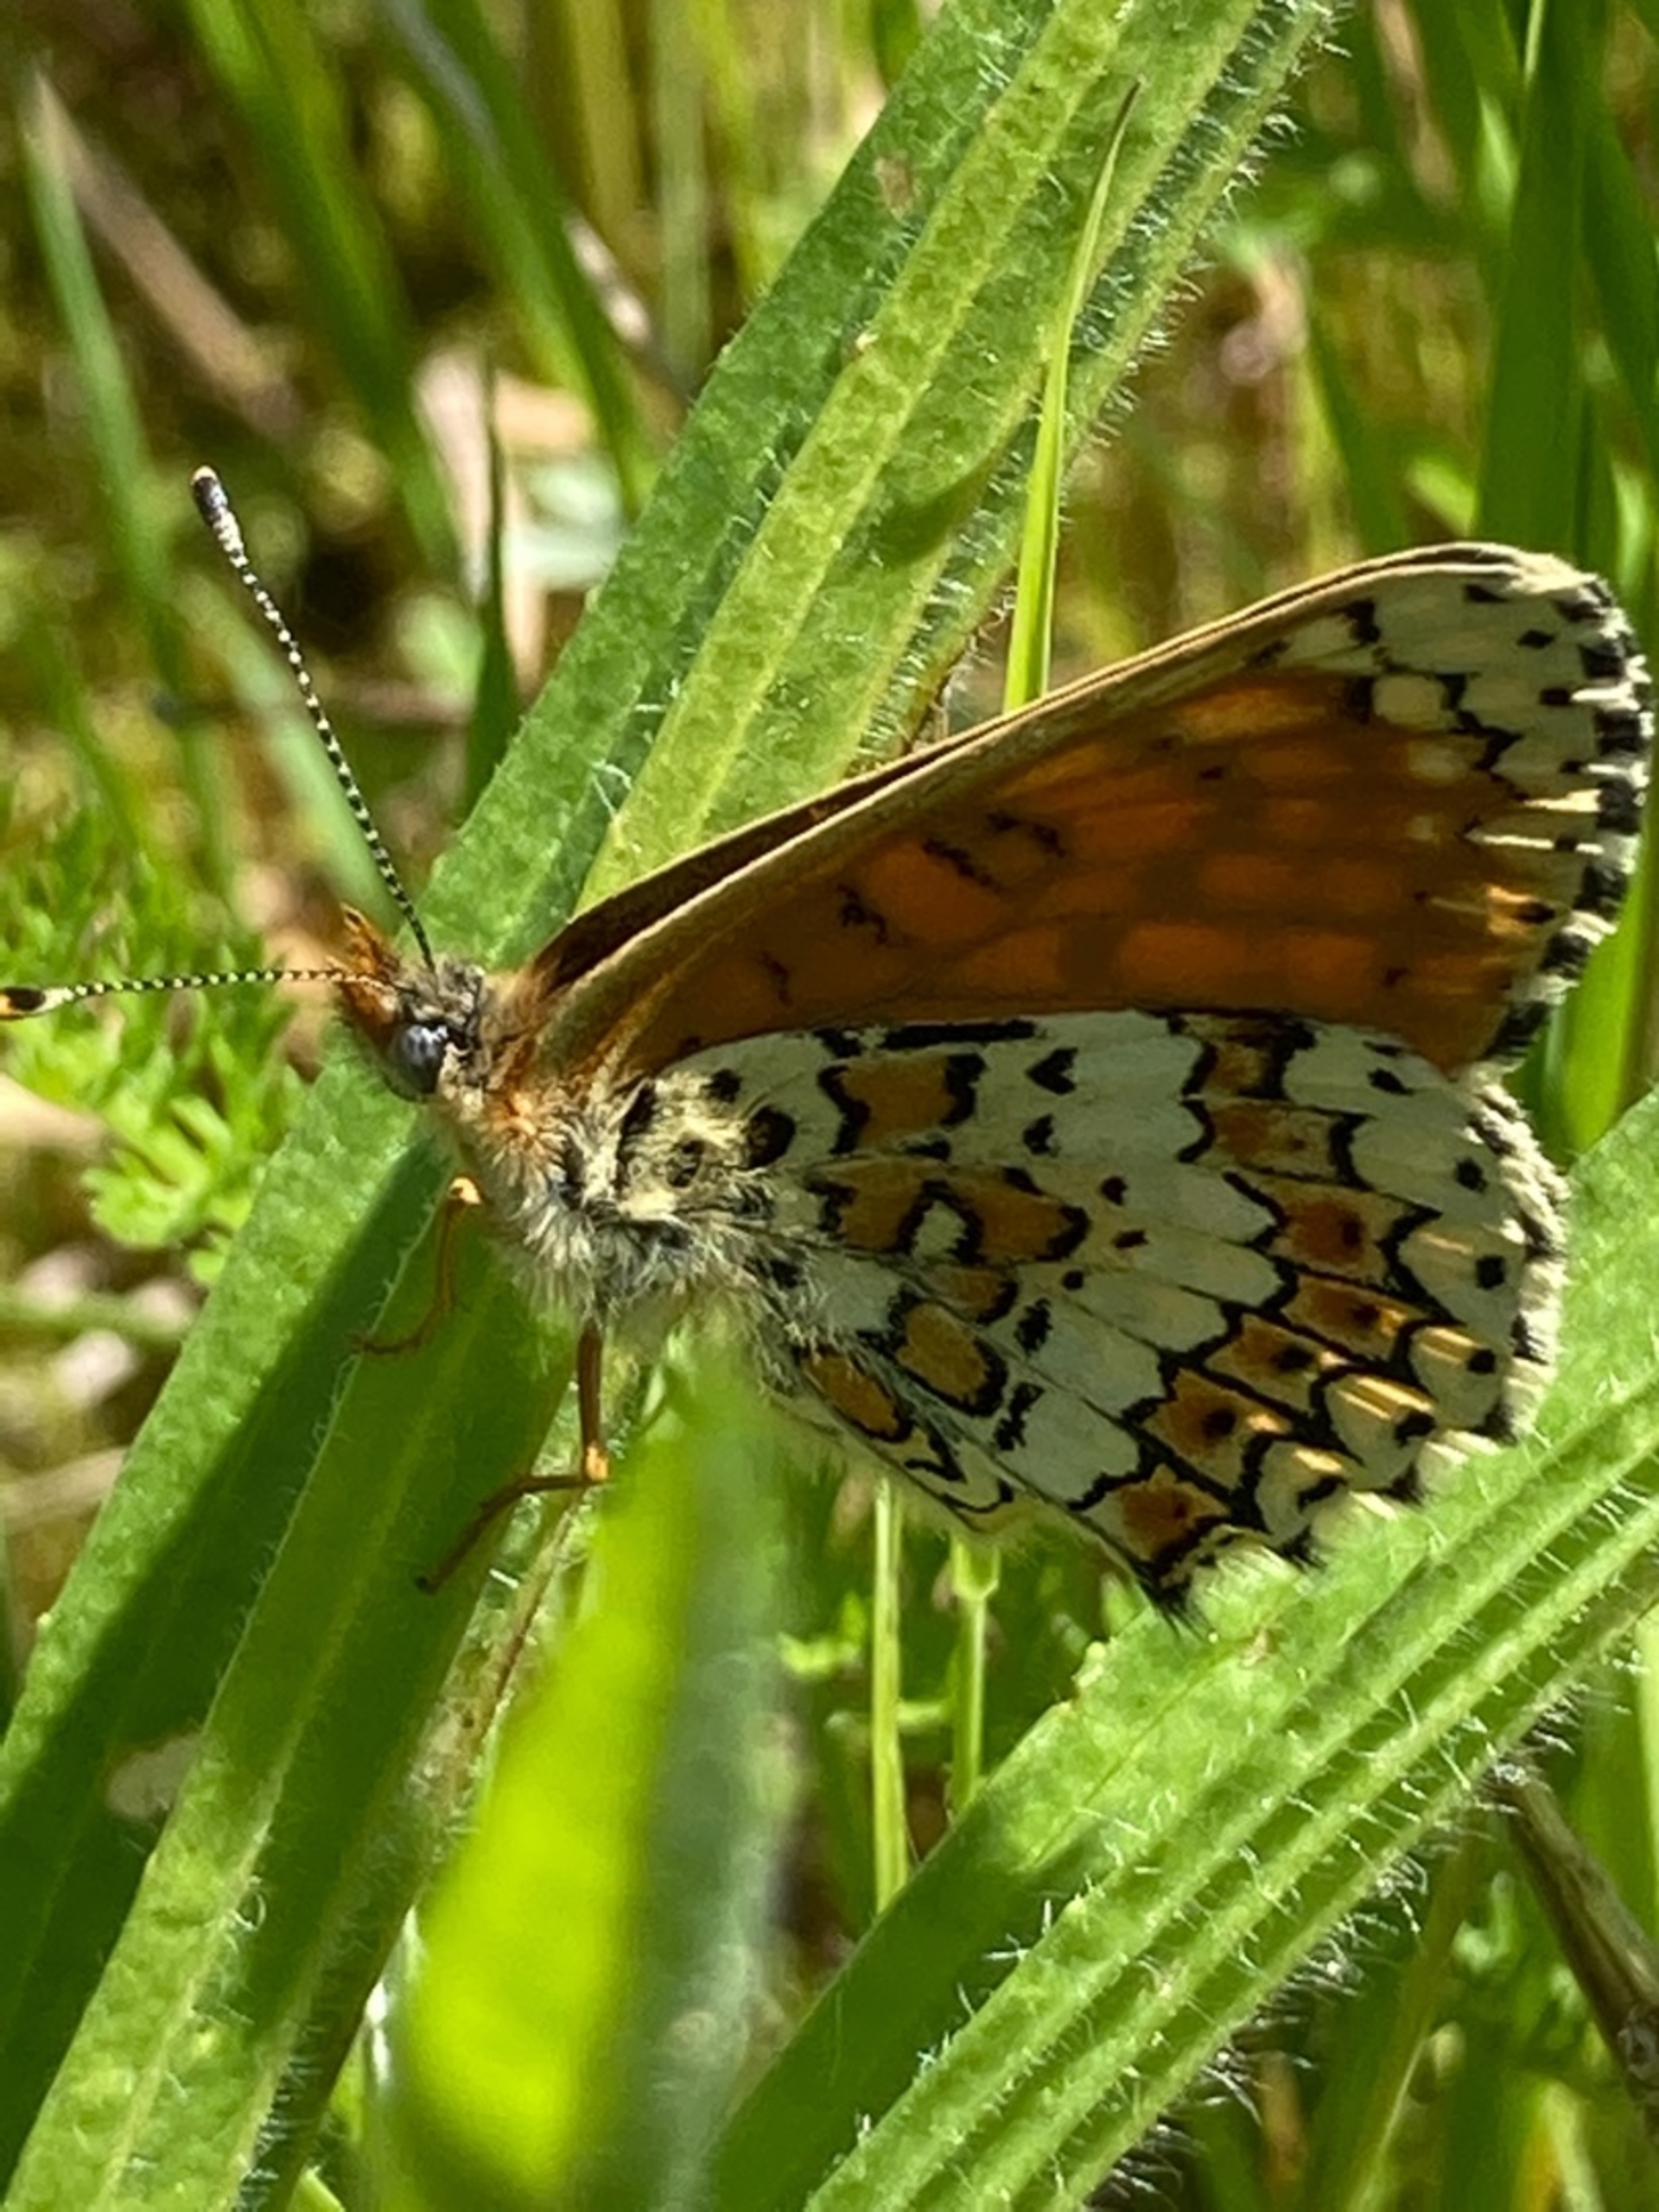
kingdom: Animalia
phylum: Arthropoda
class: Insecta
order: Lepidoptera
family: Nymphalidae
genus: Melitaea
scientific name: Melitaea cinxia
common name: Okkergul pletvinge
